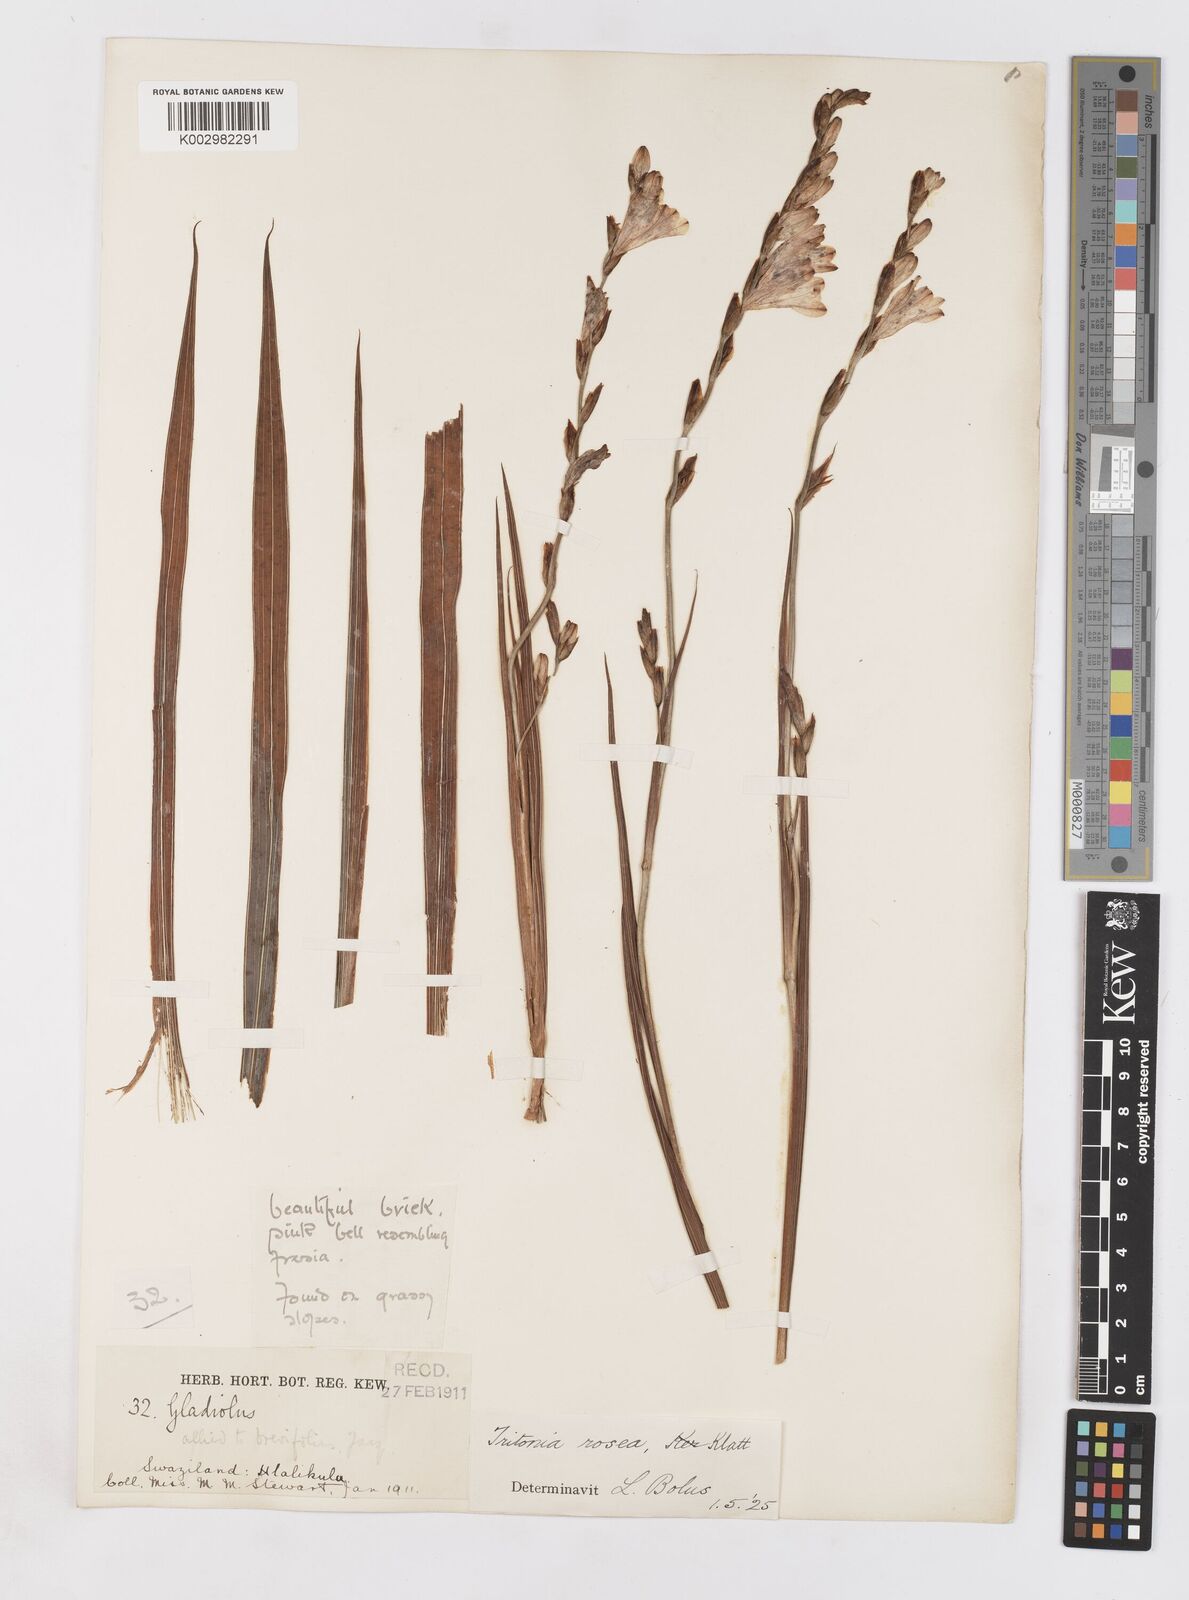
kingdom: Plantae
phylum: Tracheophyta
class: Liliopsida
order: Asparagales
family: Iridaceae
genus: Tritonia
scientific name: Tritonia disticha
